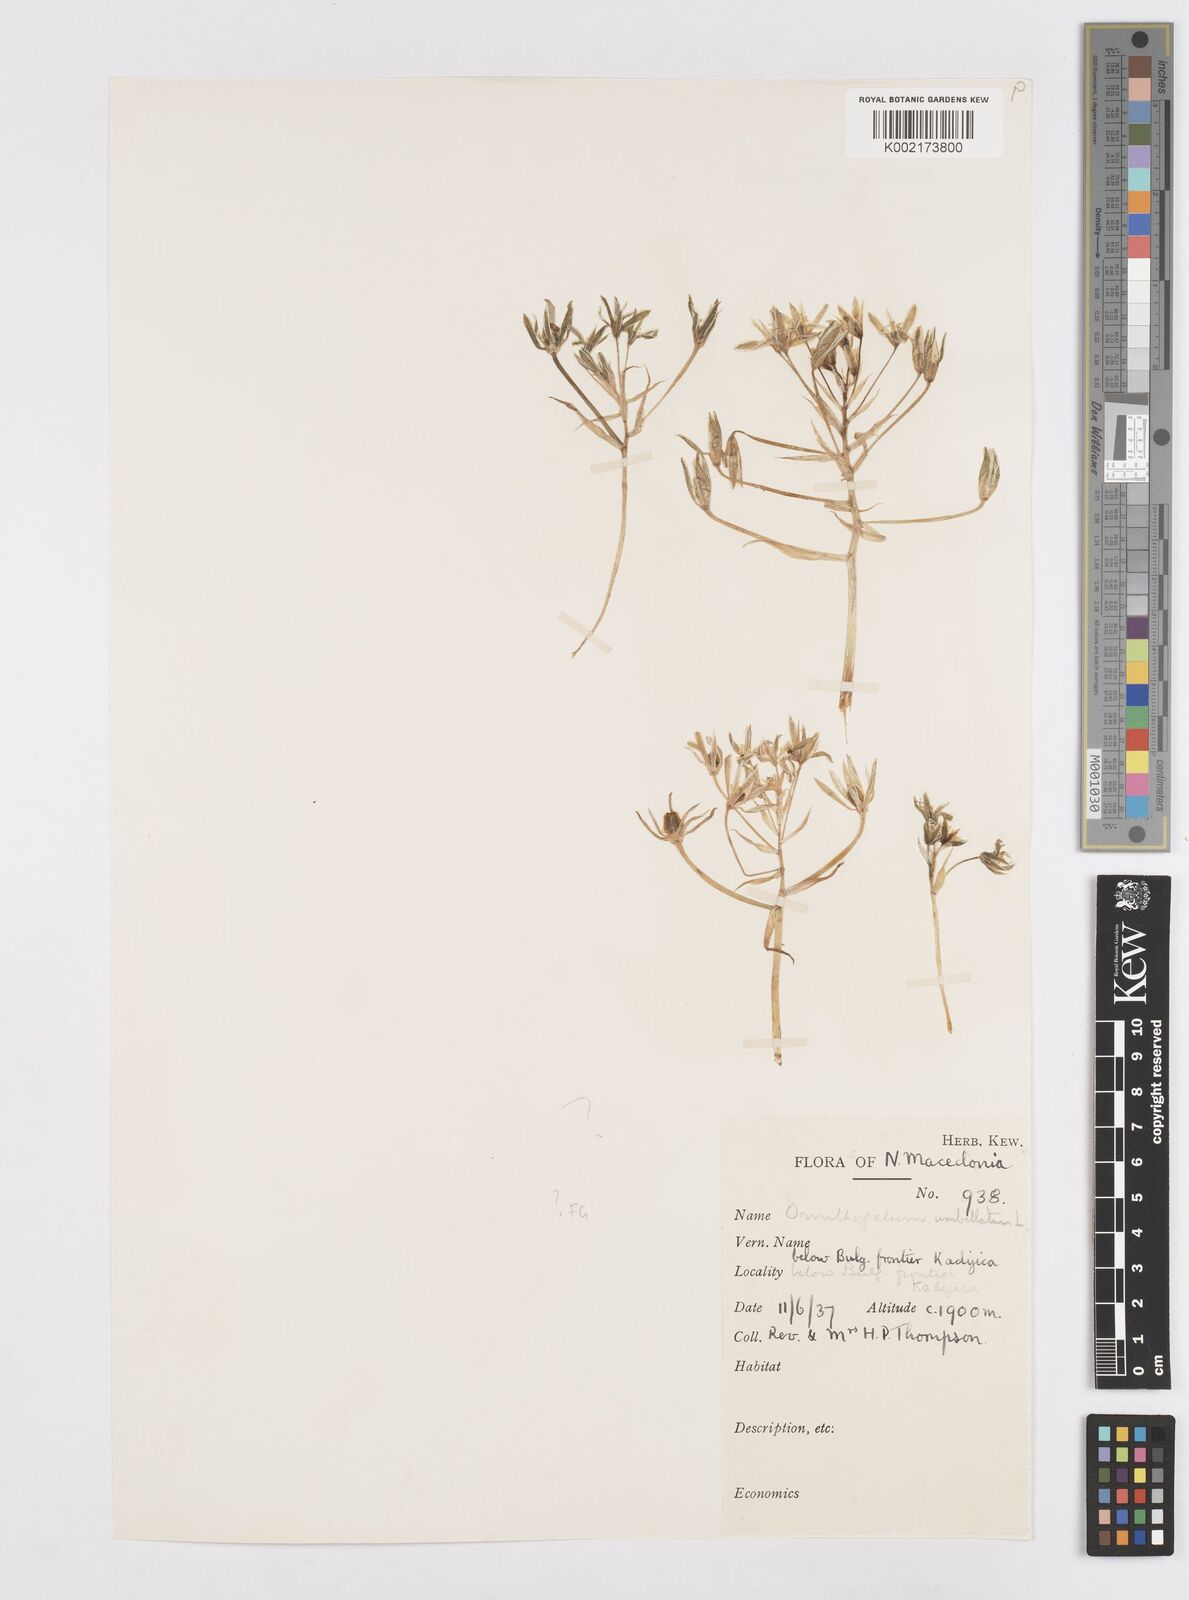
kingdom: Plantae
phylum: Tracheophyta
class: Liliopsida
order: Asparagales
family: Asparagaceae
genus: Ornithogalum
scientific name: Ornithogalum umbellatum
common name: Garden star-of-bethlehem
